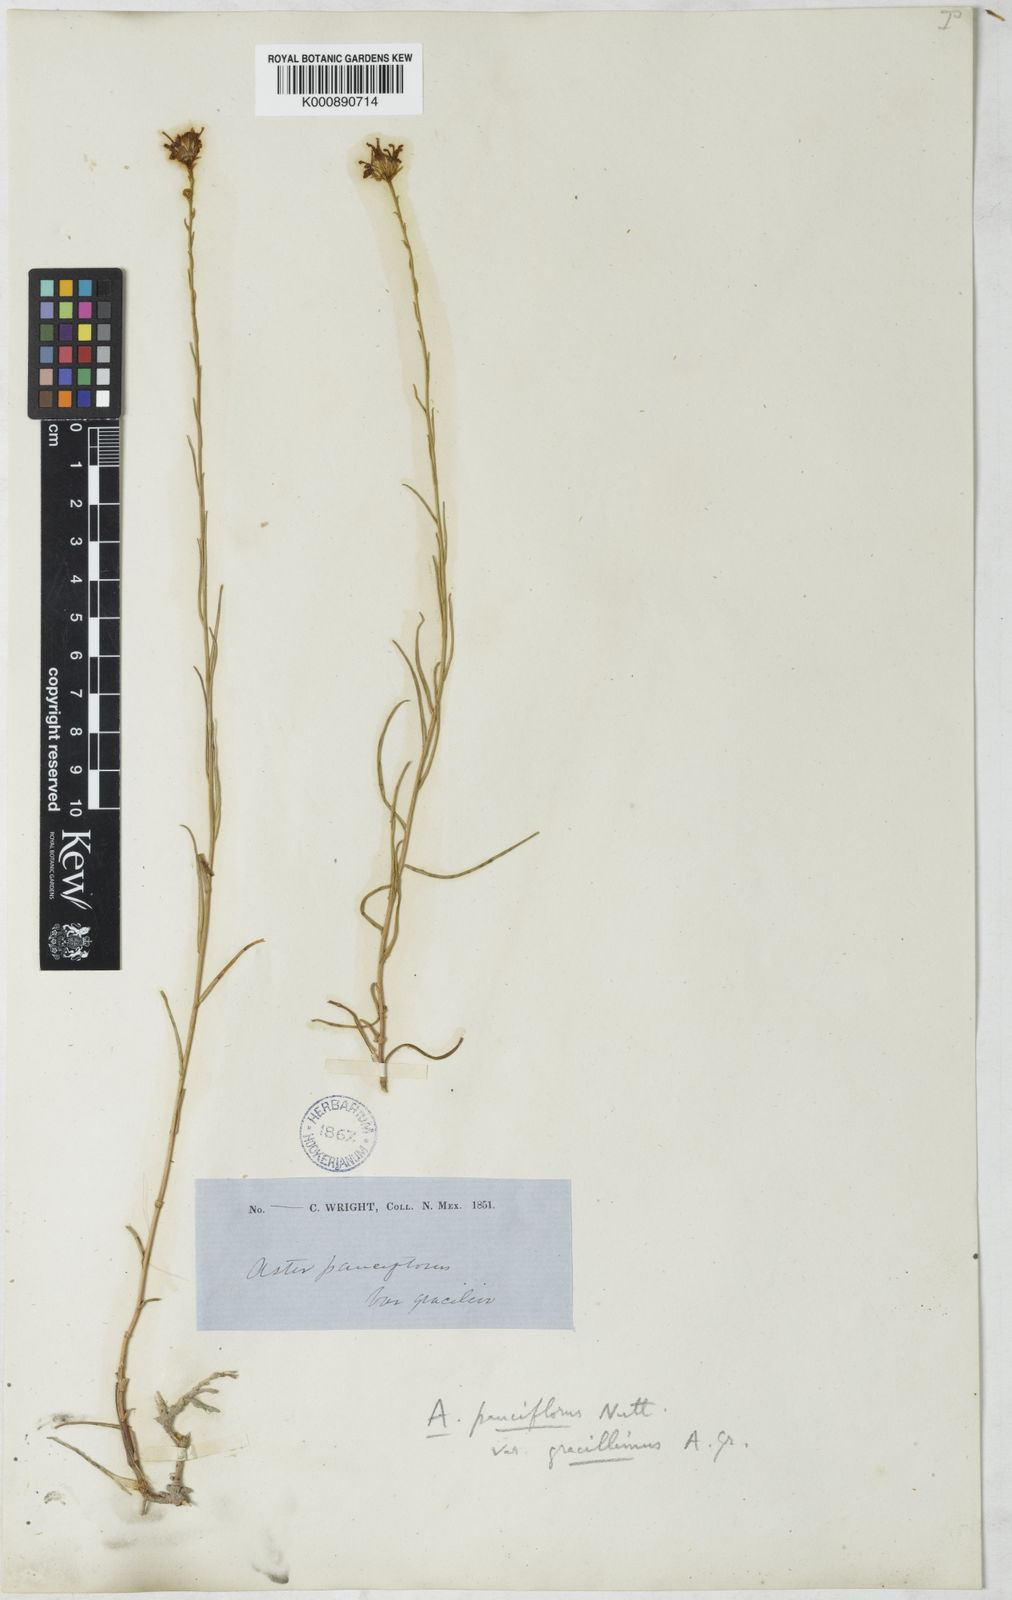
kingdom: Plantae
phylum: Tracheophyta
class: Magnoliopsida
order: Asterales
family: Asteraceae
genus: Almutaster
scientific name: Almutaster pauciflorus
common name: Alkaline aster
